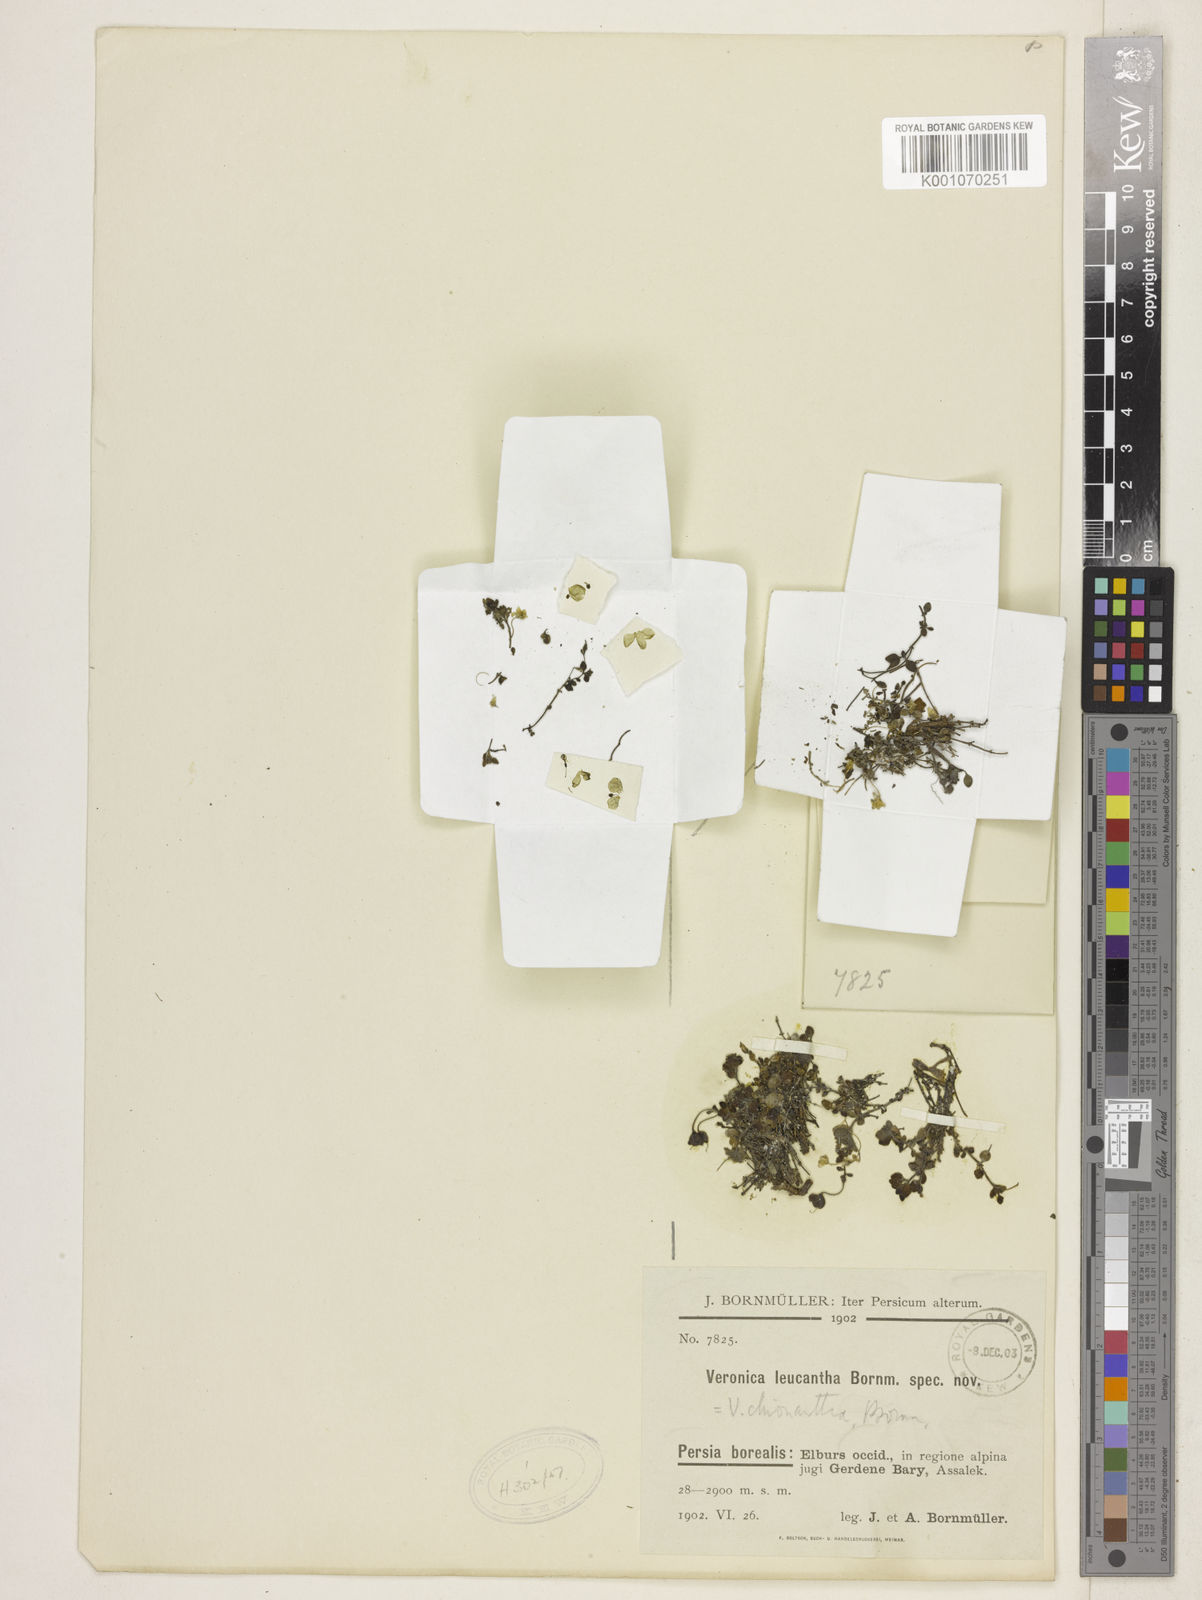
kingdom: Plantae
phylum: Tracheophyta
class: Magnoliopsida
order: Lamiales
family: Plantaginaceae
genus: Veronica
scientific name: Veronica chionantha
